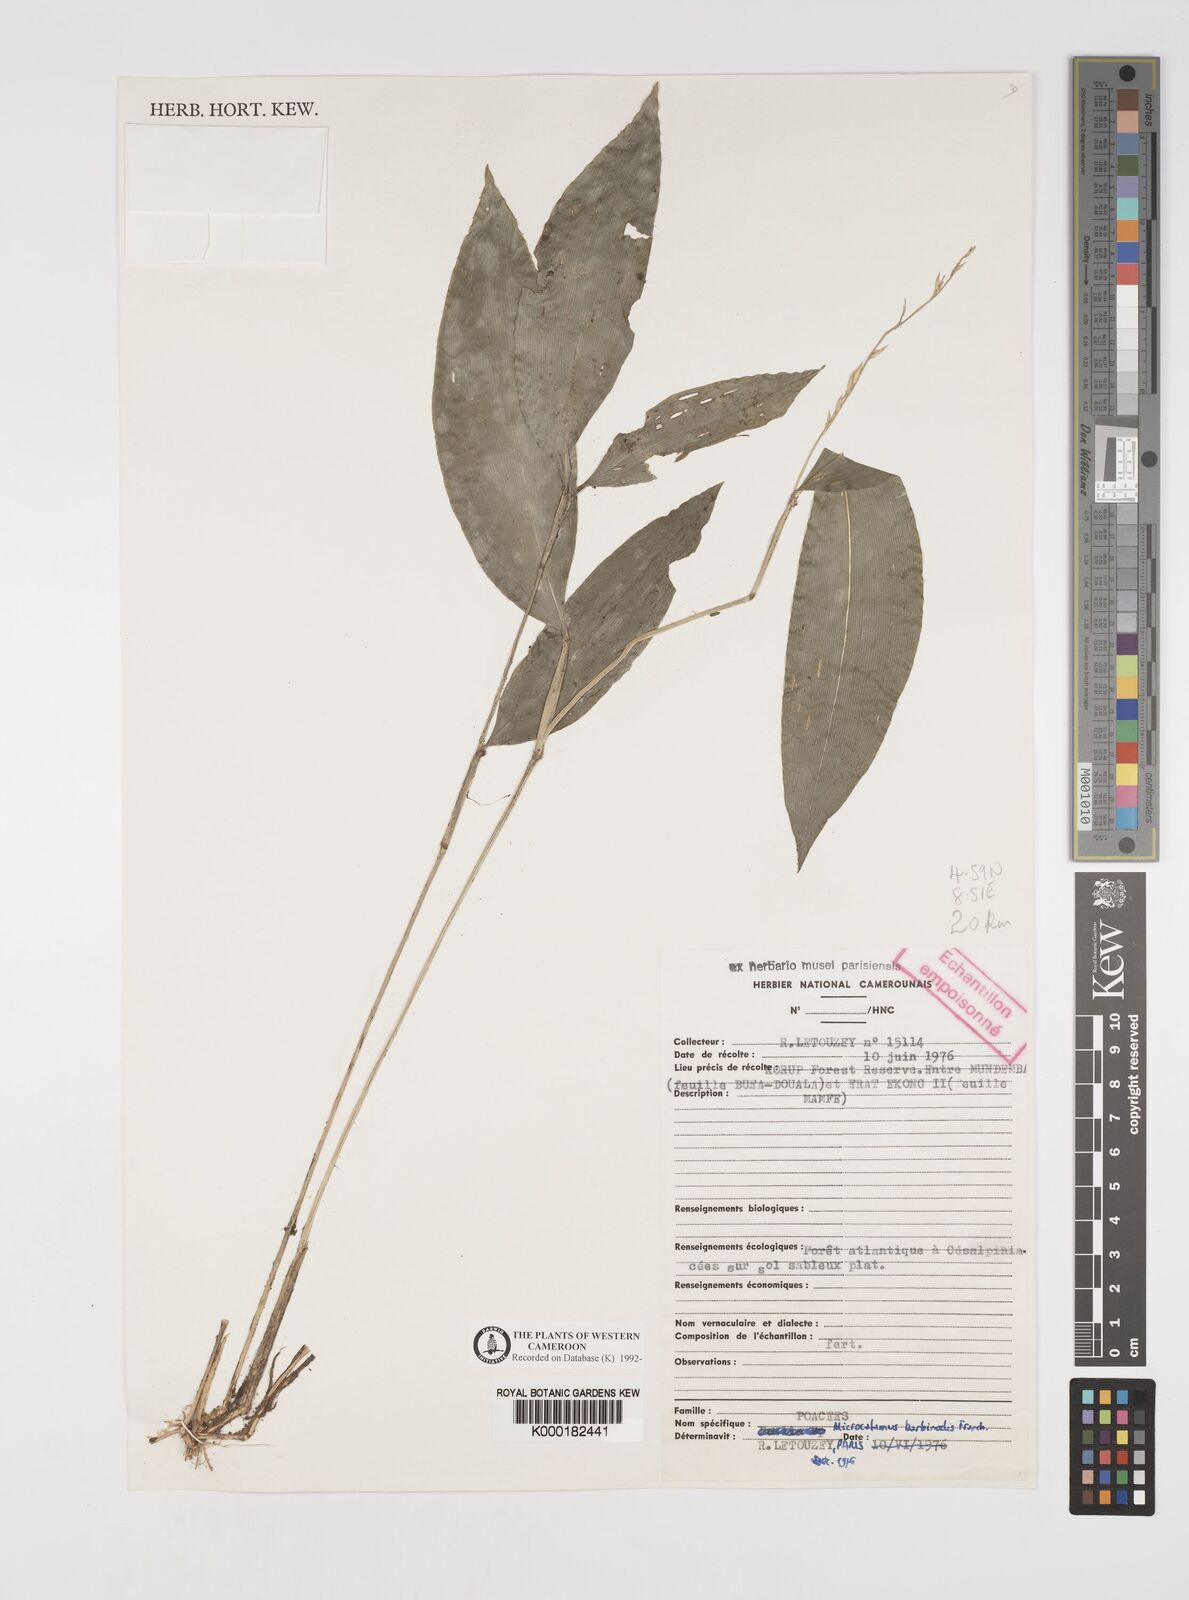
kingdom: Plantae
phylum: Tracheophyta
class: Liliopsida
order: Poales
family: Poaceae
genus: Microcalamus
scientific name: Microcalamus barbinodis
